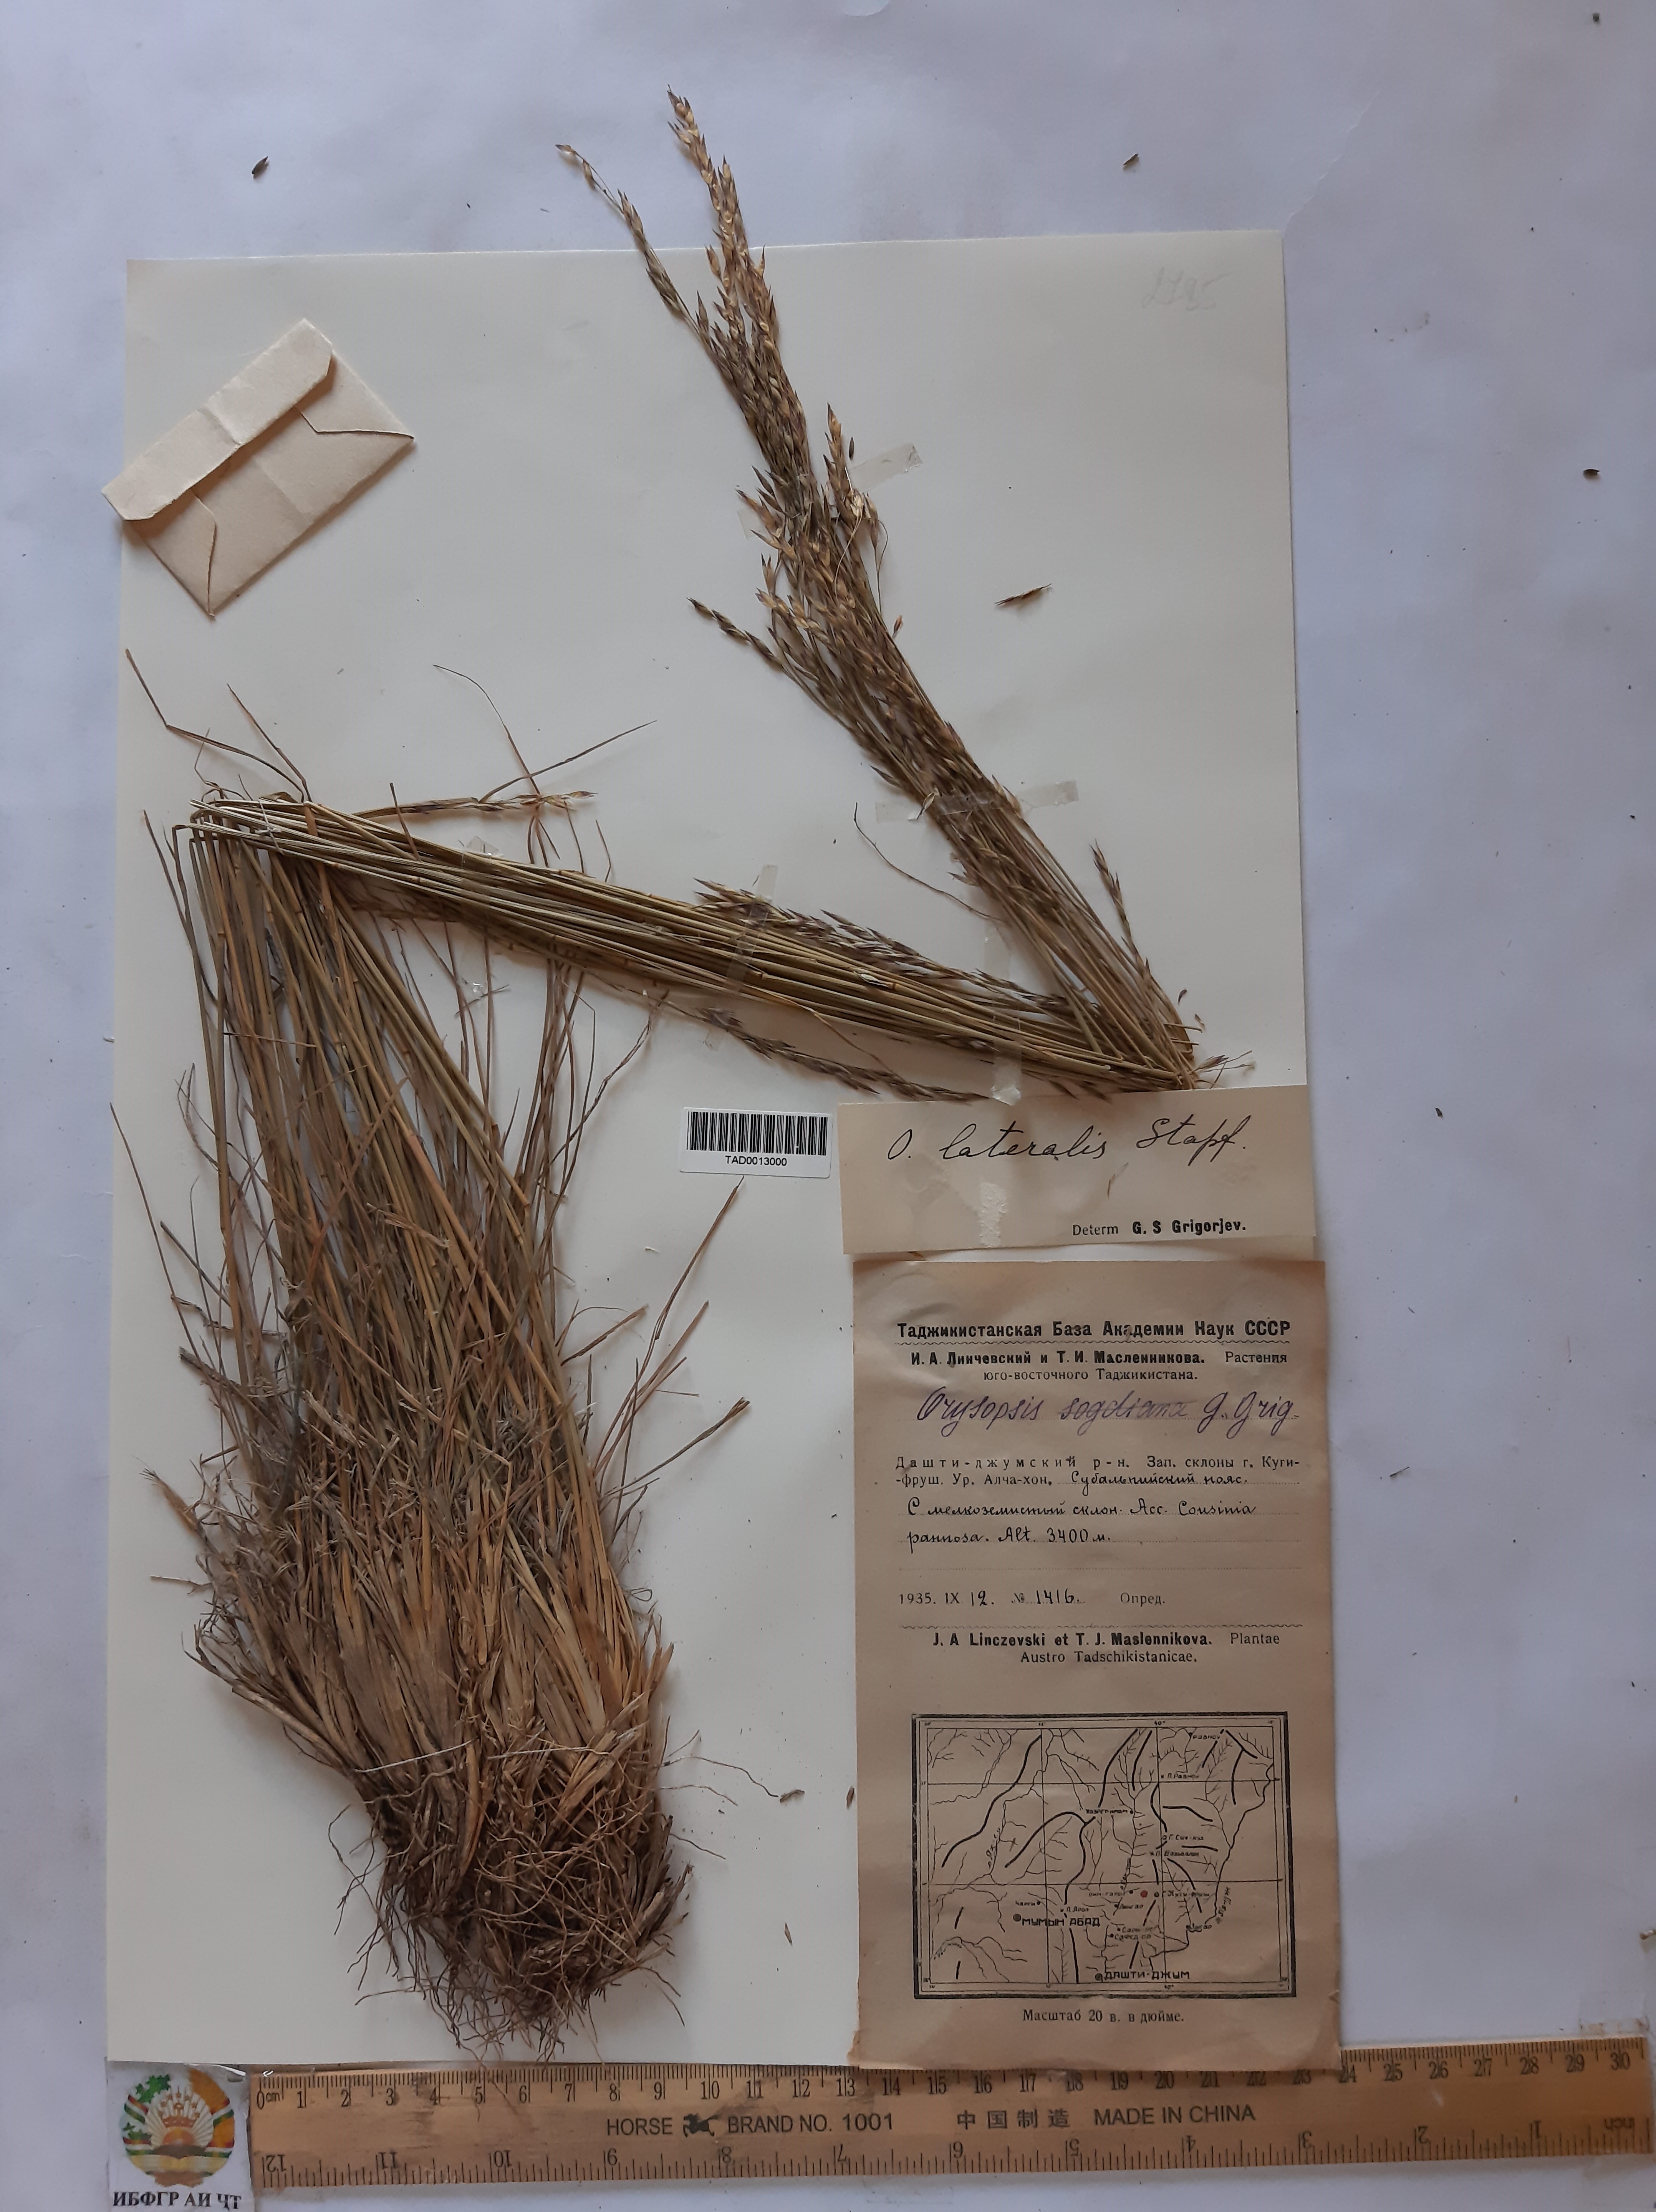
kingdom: Plantae
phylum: Tracheophyta
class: Liliopsida
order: Poales
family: Poaceae
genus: Piptatherum
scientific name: Piptatherum laterale
